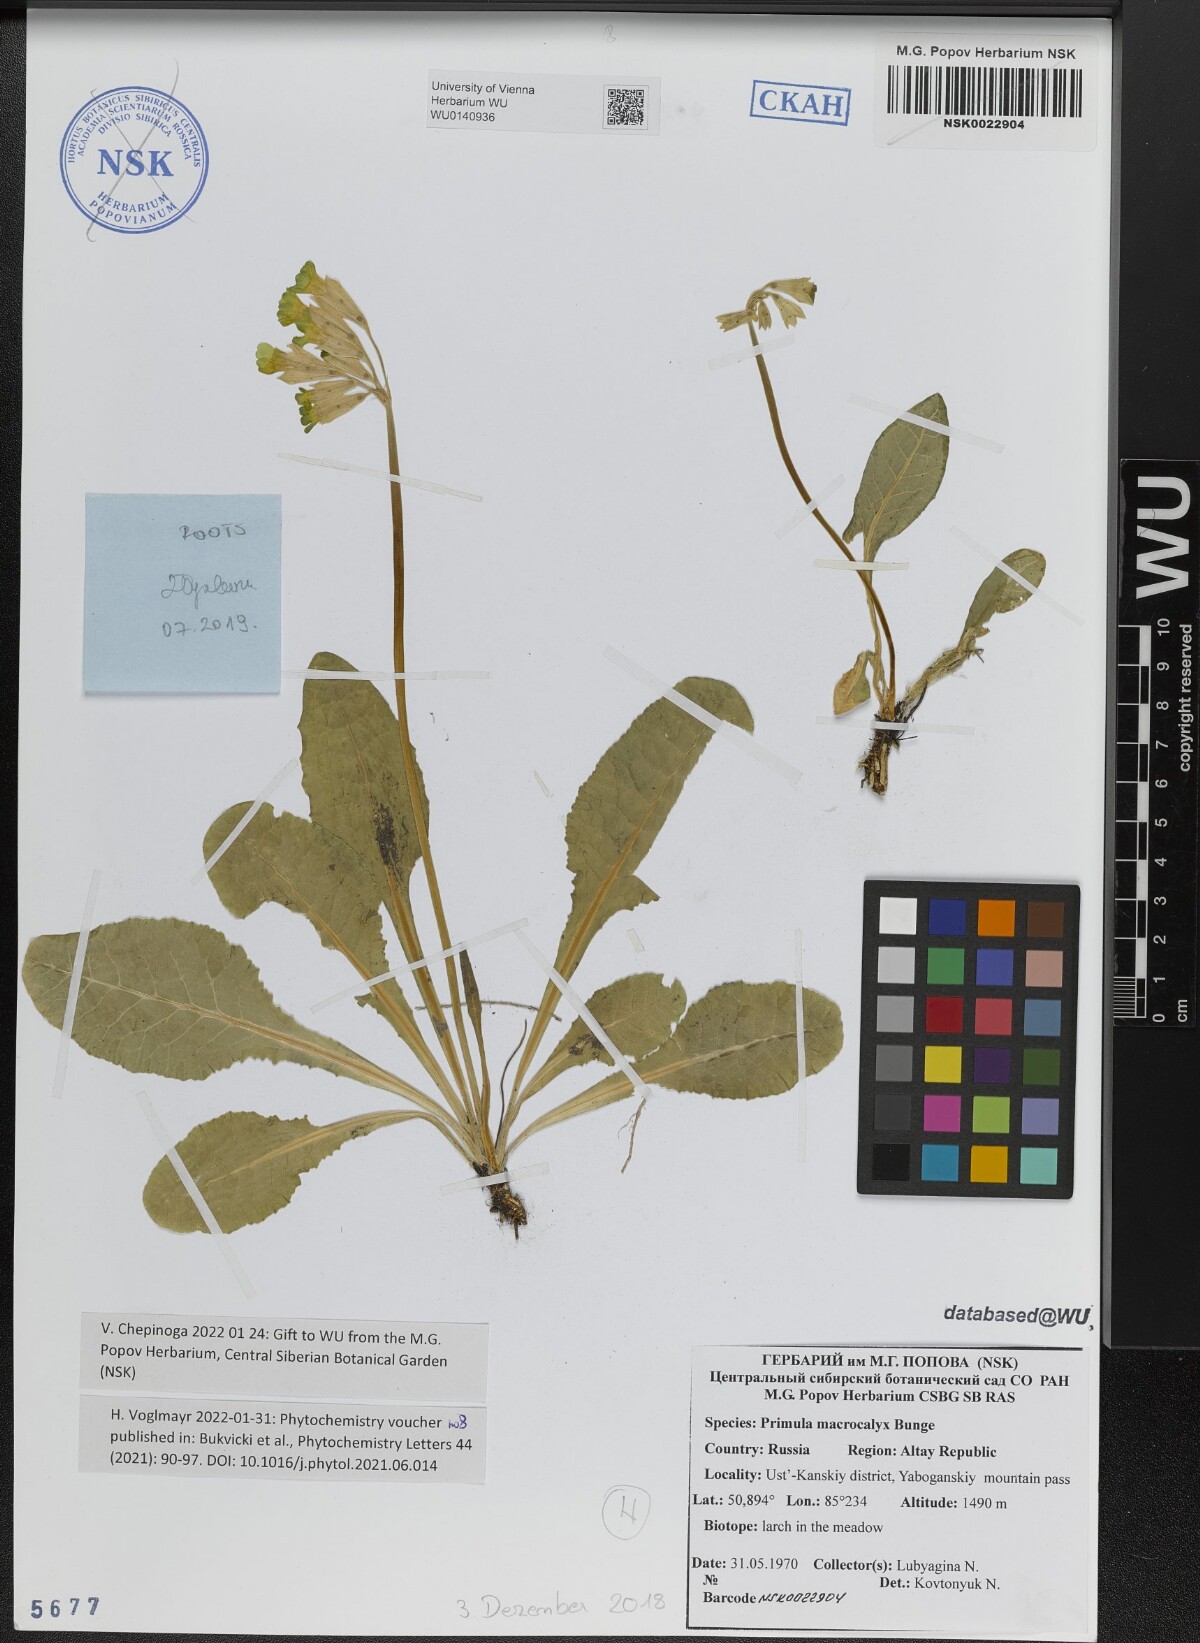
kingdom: Plantae
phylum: Tracheophyta
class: Magnoliopsida
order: Ericales
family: Primulaceae
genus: Primula
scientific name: Primula veris
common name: Cowslip
